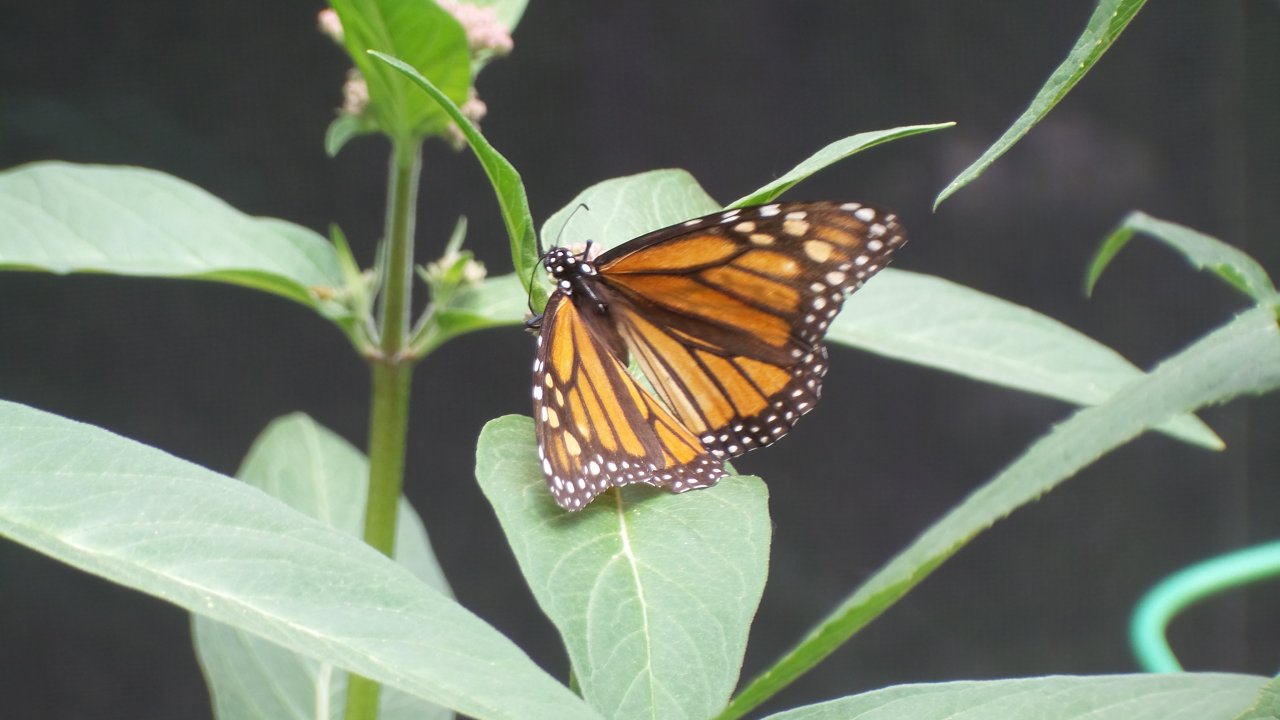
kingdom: Animalia
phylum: Arthropoda
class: Insecta
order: Lepidoptera
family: Nymphalidae
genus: Danaus
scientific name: Danaus plexippus
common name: Monarch
